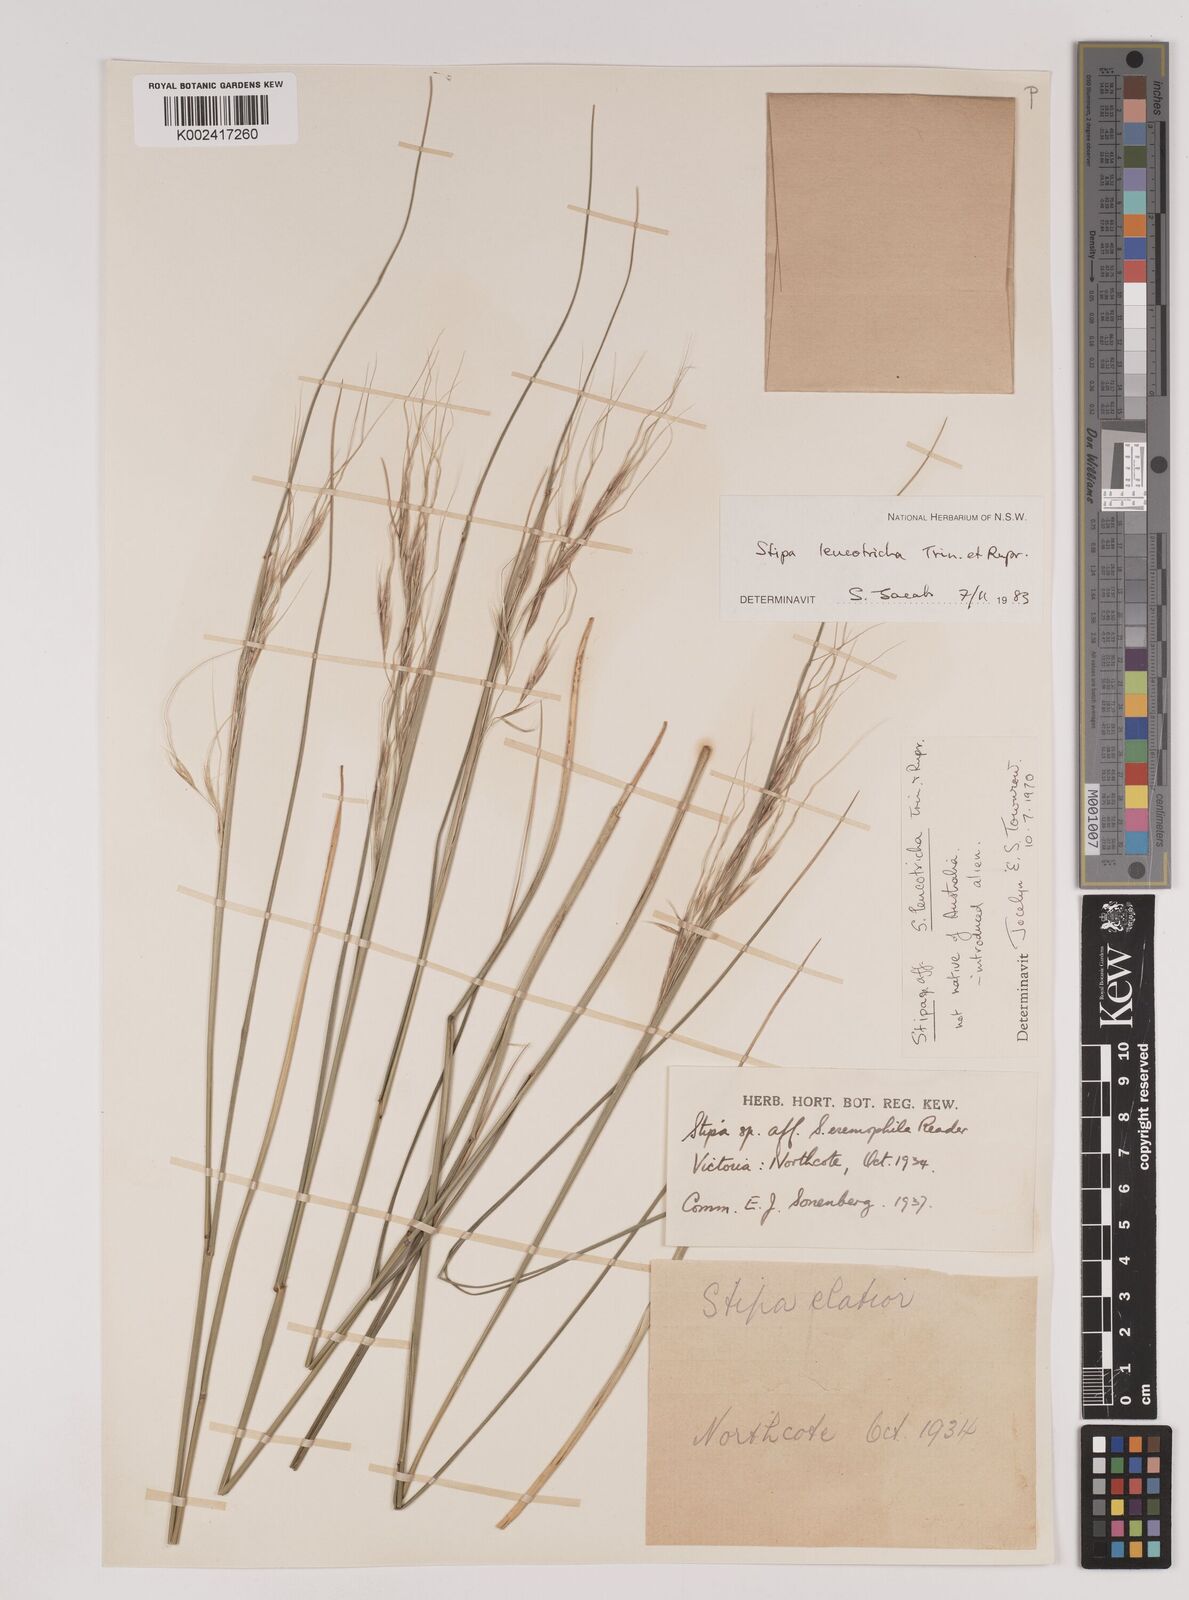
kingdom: Plantae
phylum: Tracheophyta
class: Liliopsida
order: Poales
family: Poaceae
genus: Nassella
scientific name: Nassella leucotricha
